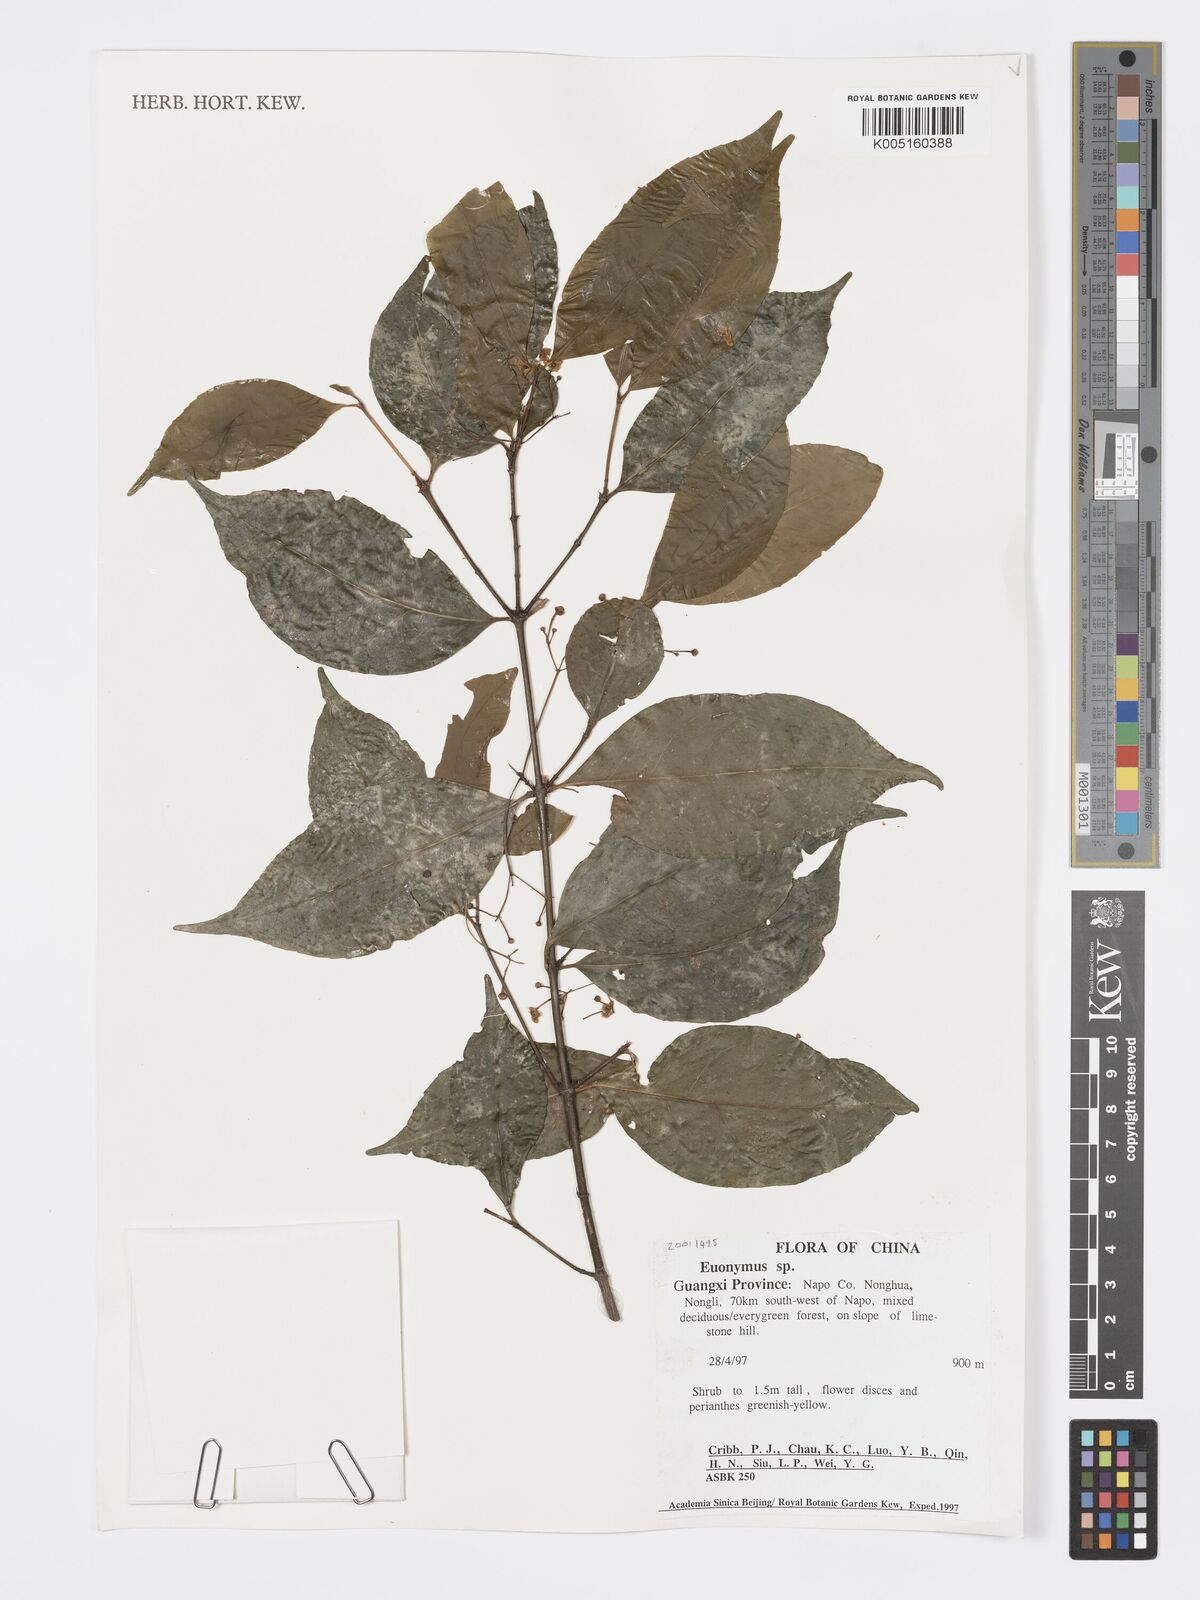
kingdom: Plantae
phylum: Tracheophyta
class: Magnoliopsida
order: Celastrales
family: Celastraceae
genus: Euonymus
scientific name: Euonymus
